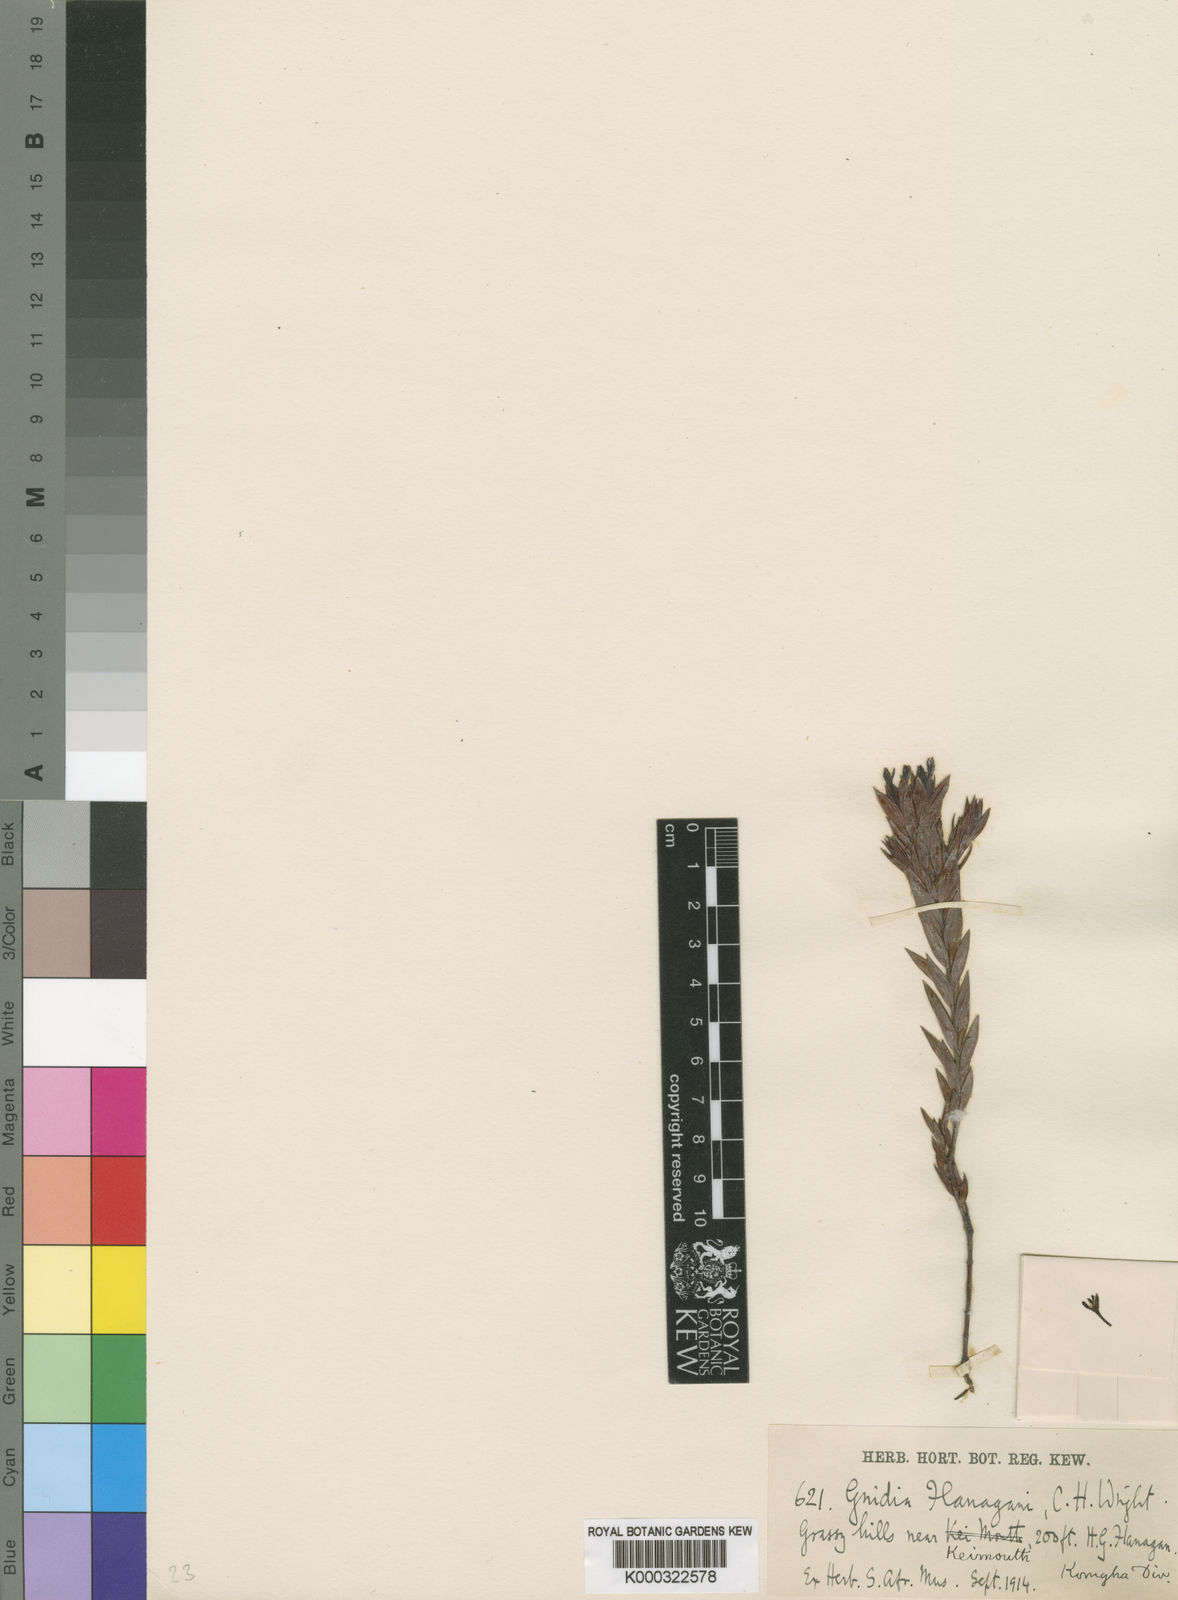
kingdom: Plantae
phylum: Tracheophyta
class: Magnoliopsida
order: Malvales
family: Thymelaeaceae
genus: Gnidia
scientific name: Gnidia flanaganii
